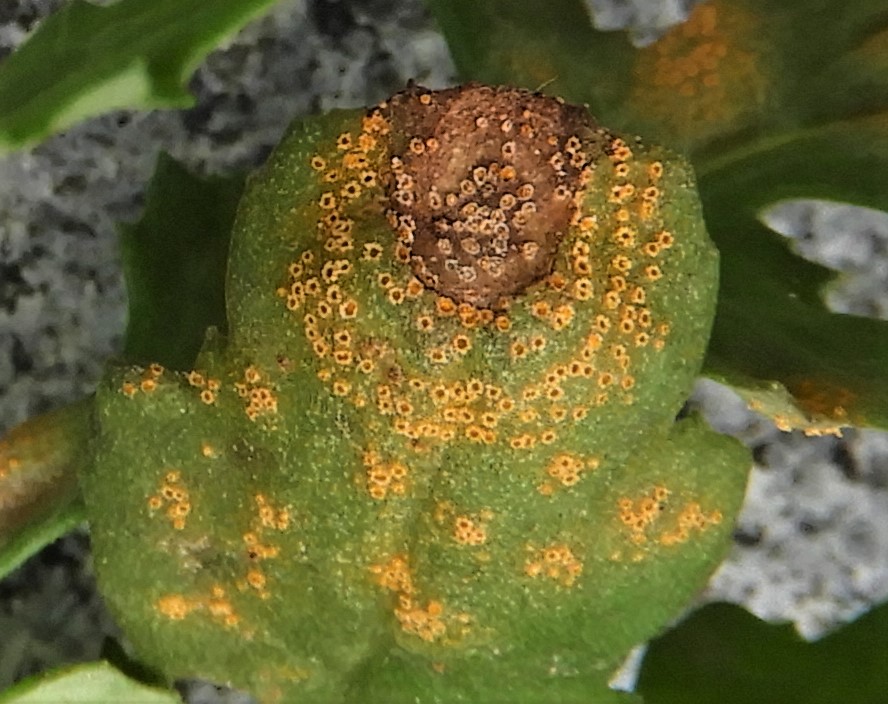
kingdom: Fungi
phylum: Basidiomycota
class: Pucciniomycetes
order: Pucciniales
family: Pucciniaceae
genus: Puccinia
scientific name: Puccinia lagenophorae
